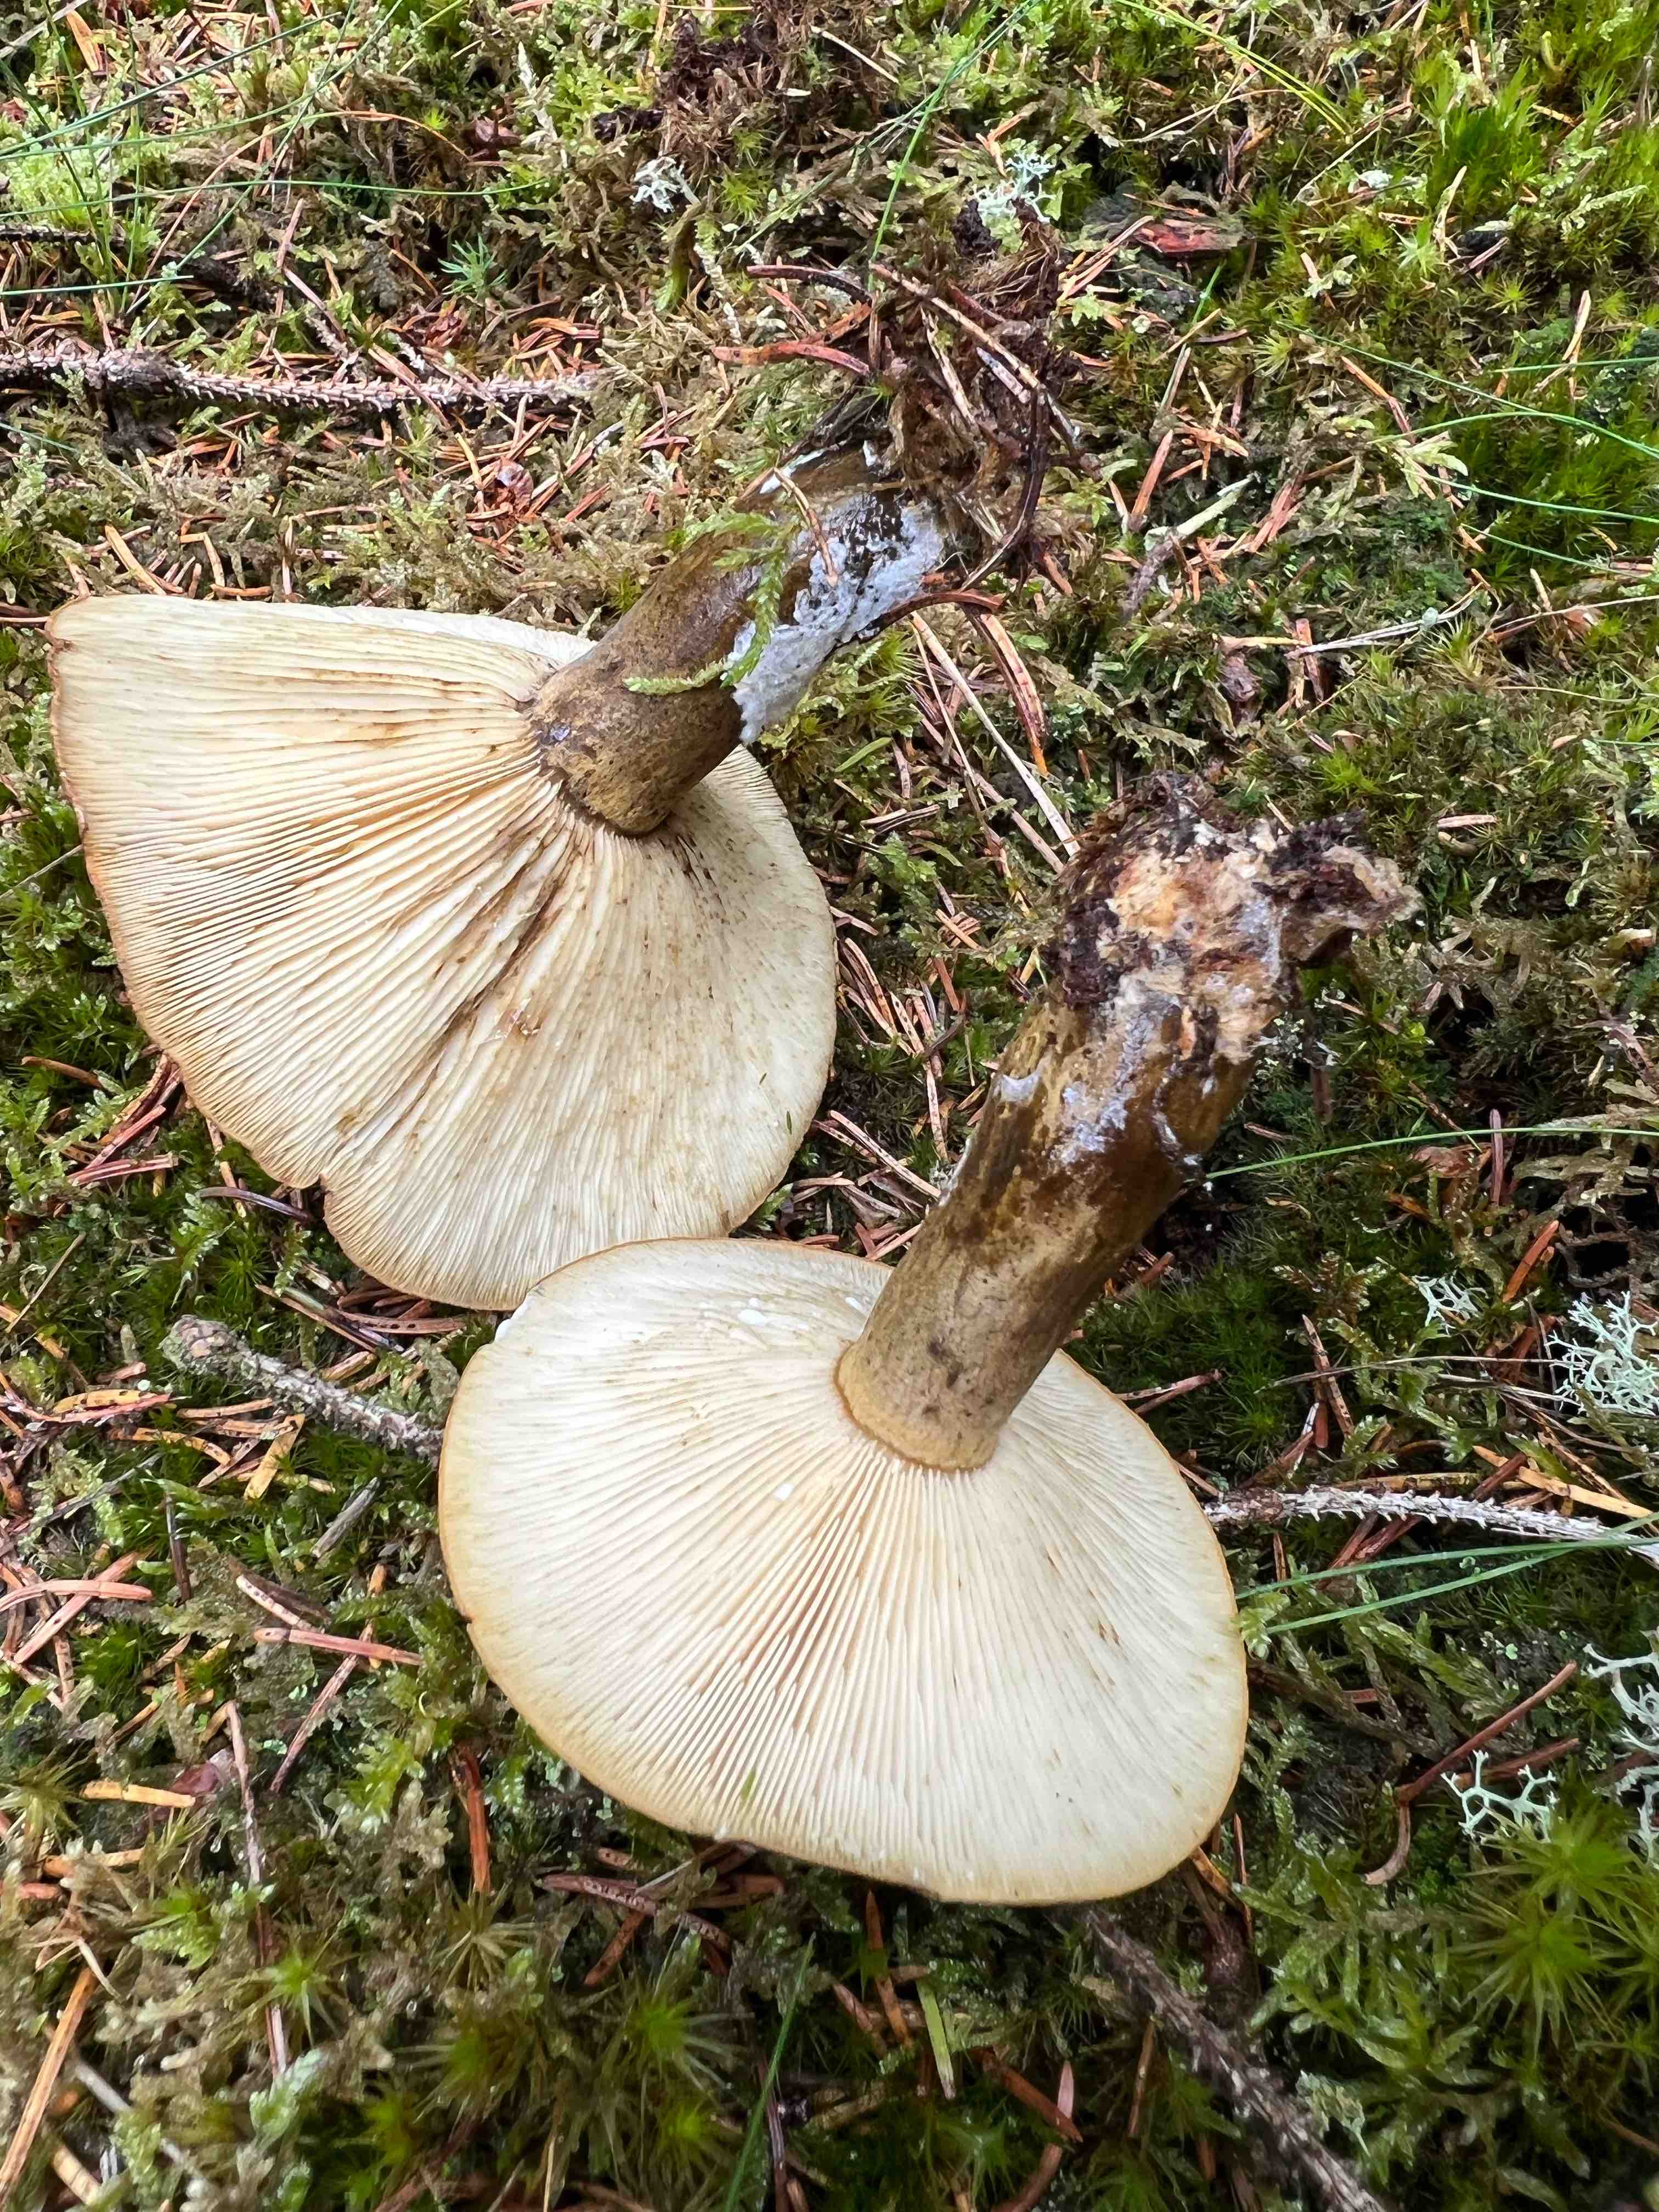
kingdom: Fungi
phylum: Basidiomycota
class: Agaricomycetes
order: Russulales
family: Russulaceae
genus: Lactarius
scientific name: Lactarius necator
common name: manddraber-mælkehat
